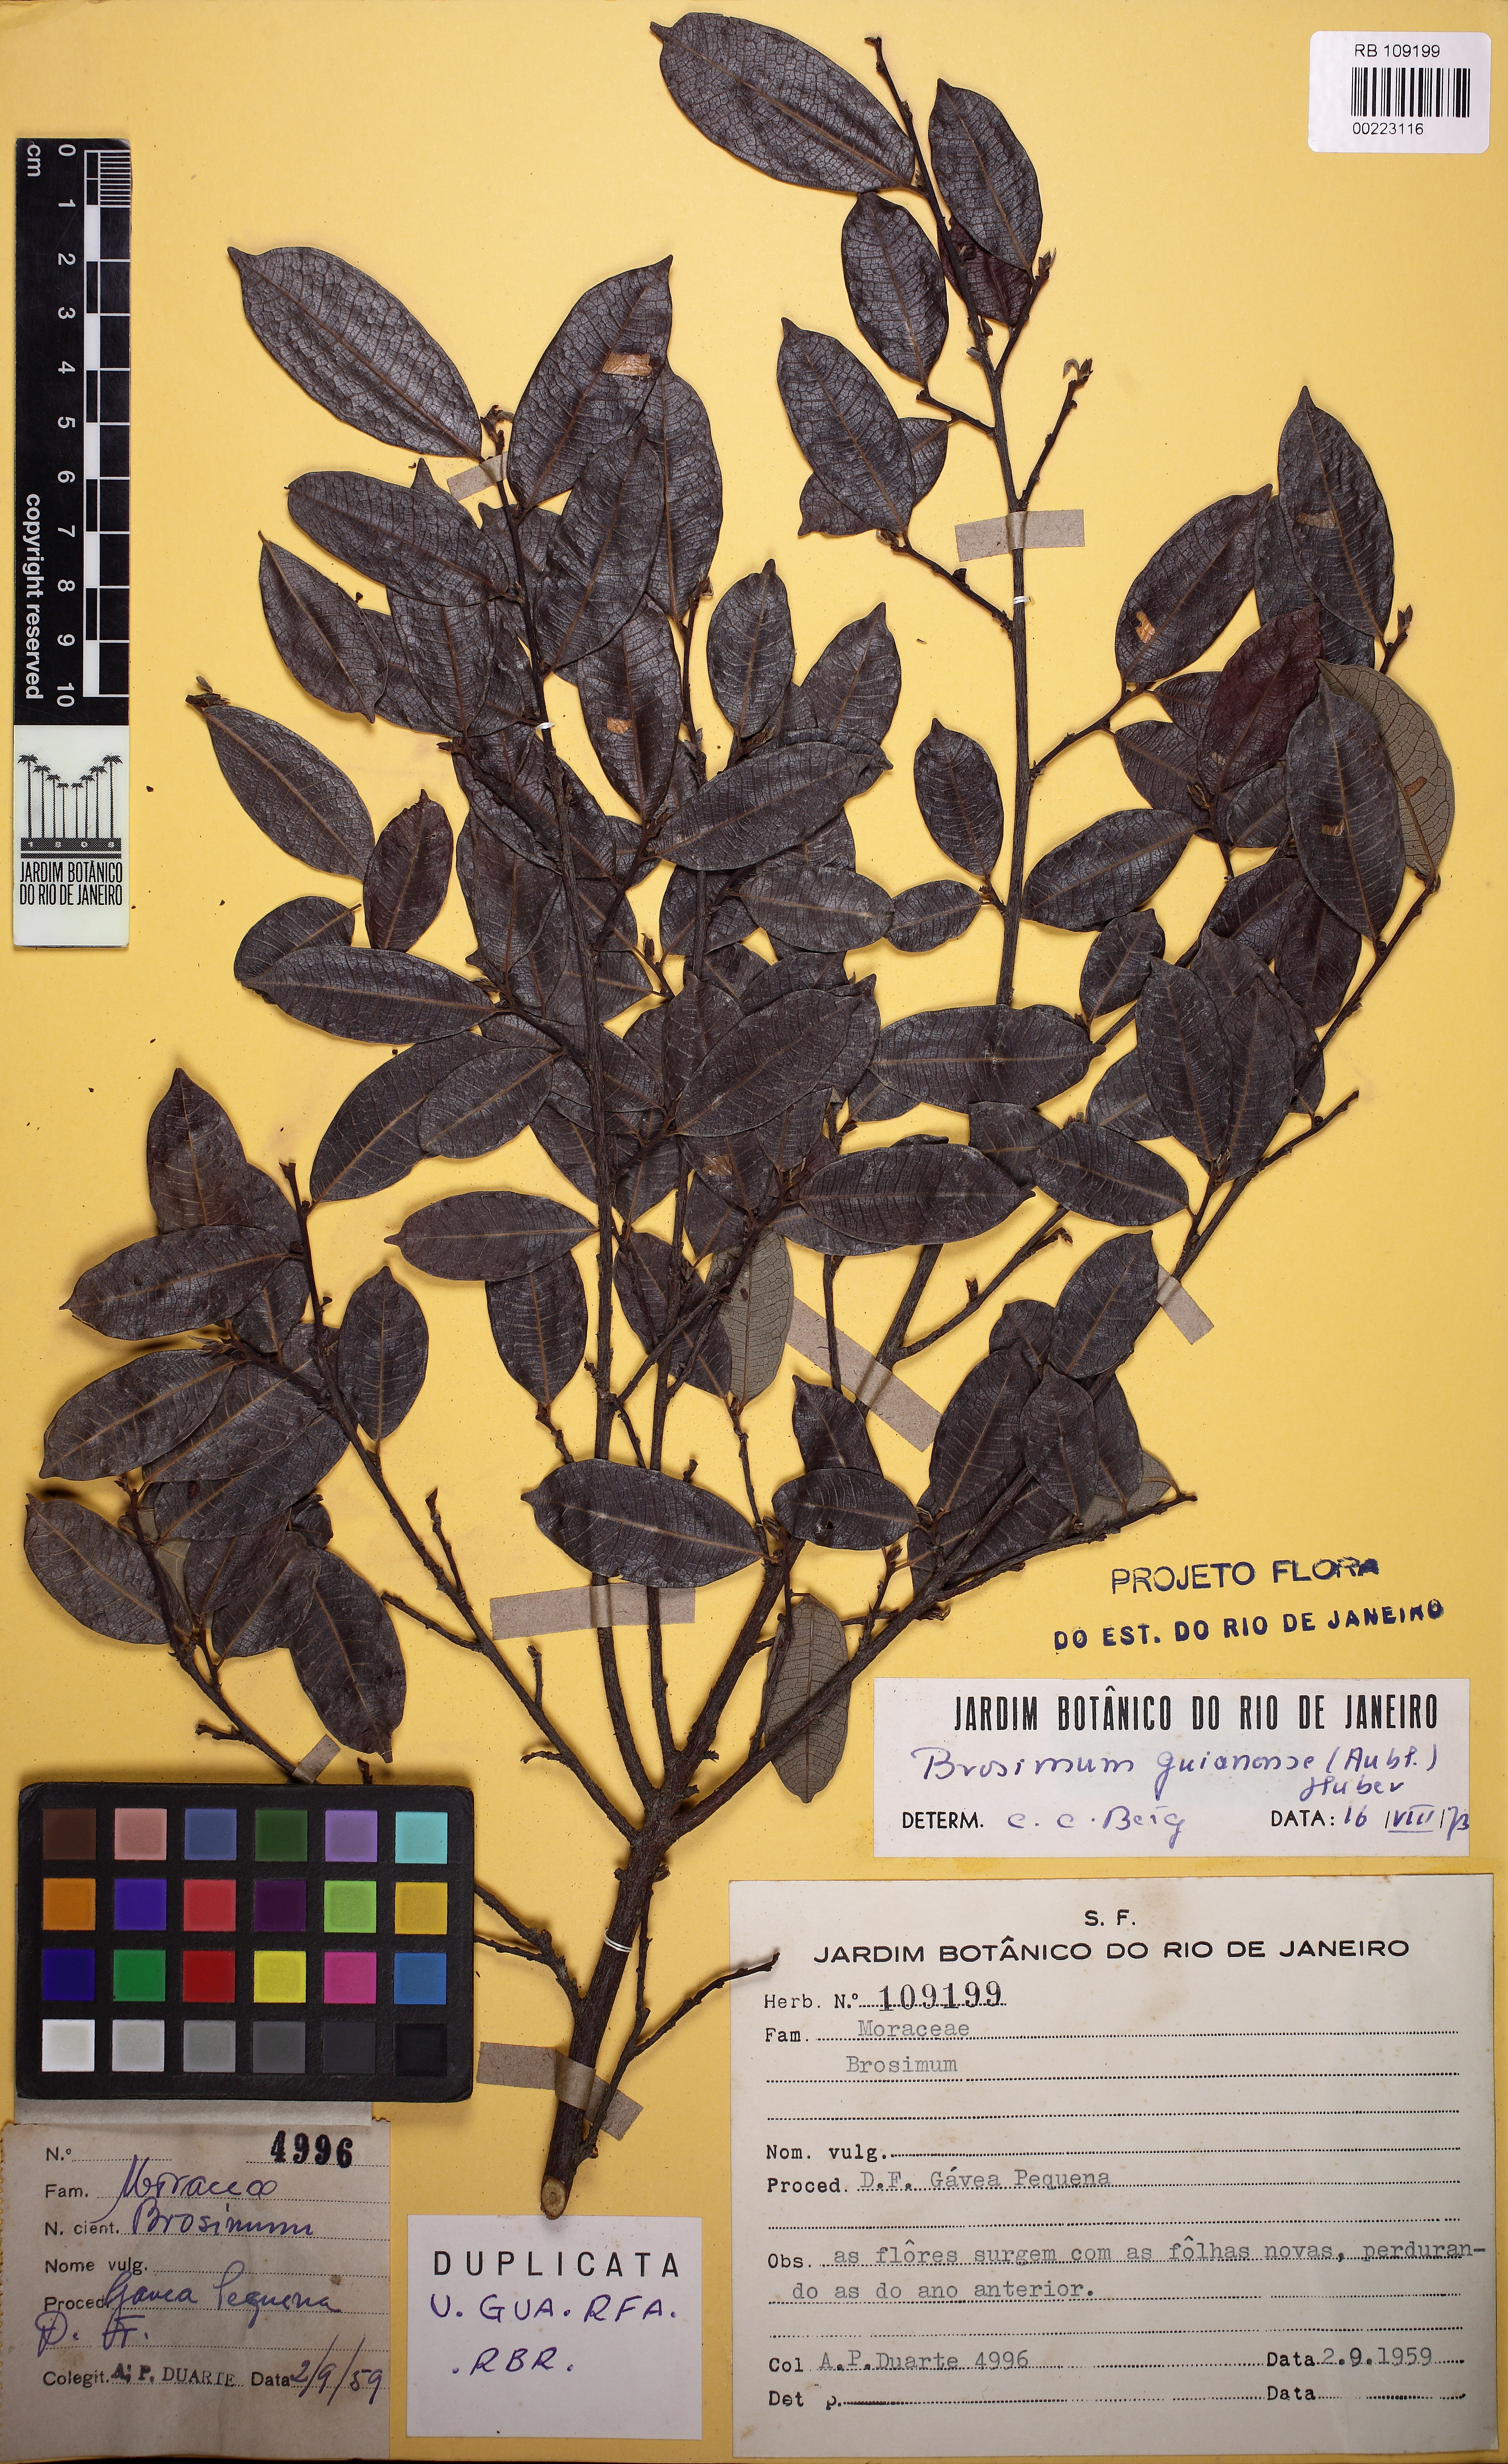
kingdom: Plantae
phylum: Tracheophyta
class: Magnoliopsida
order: Rosales
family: Moraceae
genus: Brosimum
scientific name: Brosimum guianense
